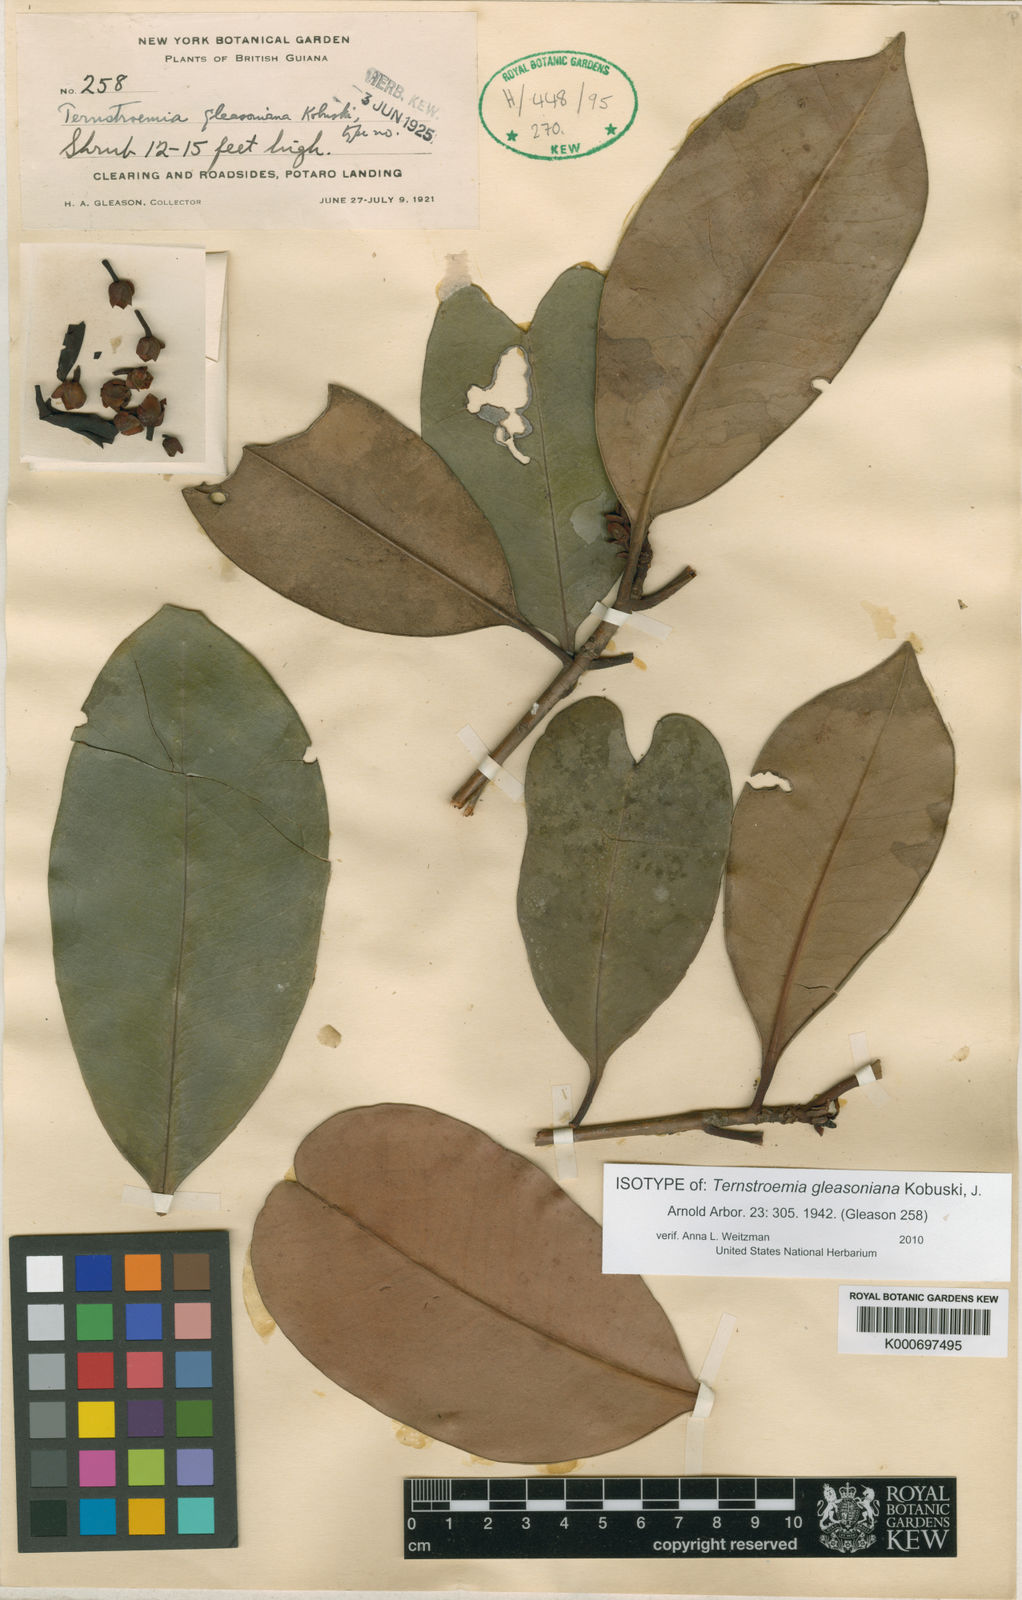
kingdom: Plantae
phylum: Tracheophyta
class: Magnoliopsida
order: Ericales
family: Pentaphylacaceae
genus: Ternstroemia
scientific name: Ternstroemia gleasoniana
